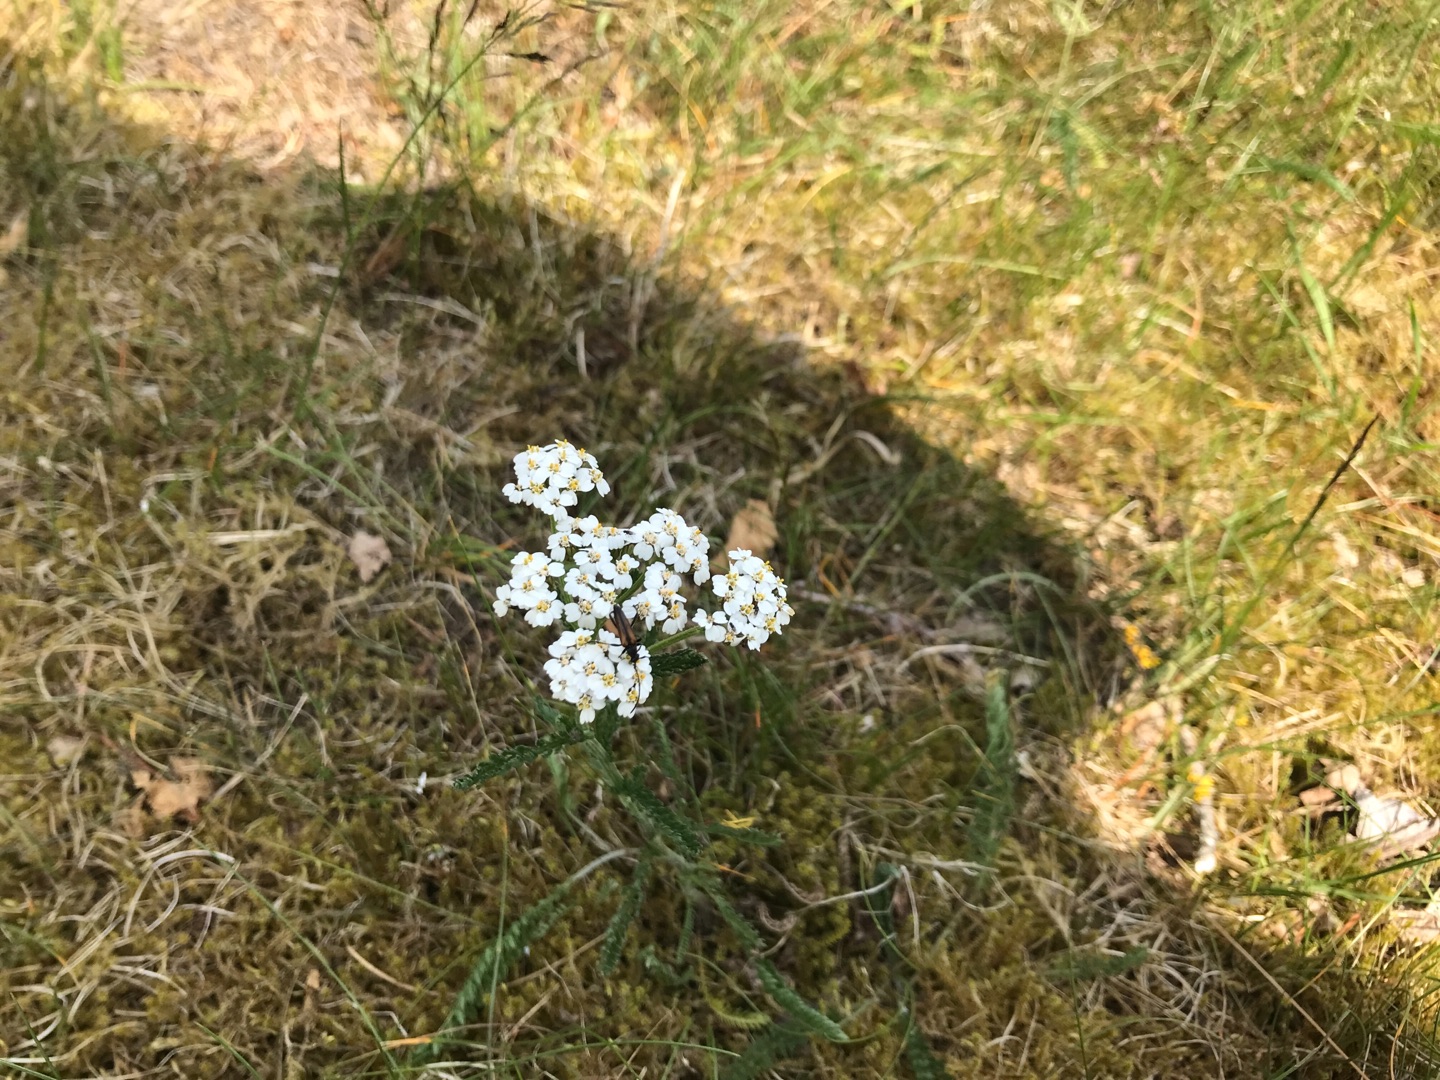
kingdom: Plantae
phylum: Tracheophyta
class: Magnoliopsida
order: Asterales
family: Asteraceae
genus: Achillea
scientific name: Achillea millefolium
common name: Almindelig røllike
